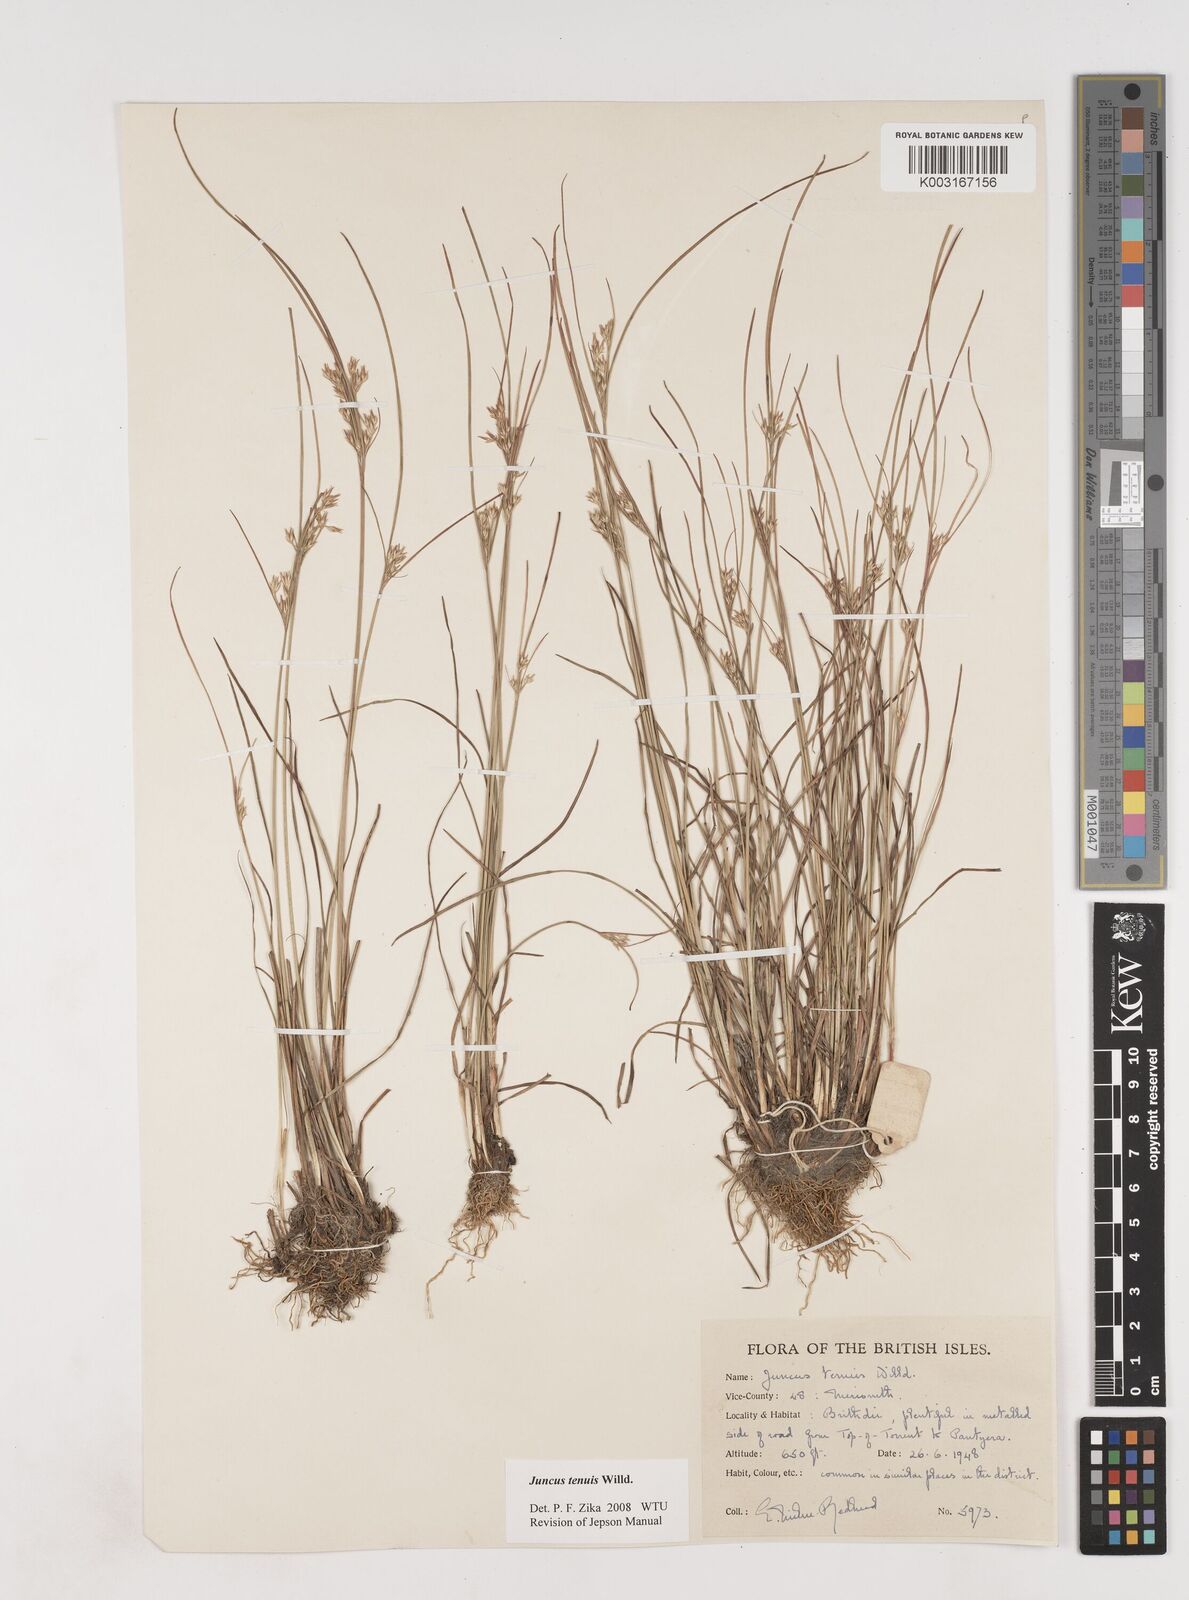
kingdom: Plantae
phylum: Tracheophyta
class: Liliopsida
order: Poales
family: Juncaceae
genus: Juncus
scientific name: Juncus tenuis
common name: Slender rush
